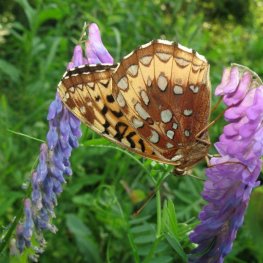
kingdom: Animalia
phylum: Arthropoda
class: Insecta
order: Lepidoptera
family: Nymphalidae
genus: Speyeria
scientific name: Speyeria cybele
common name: Great Spangled Fritillary
